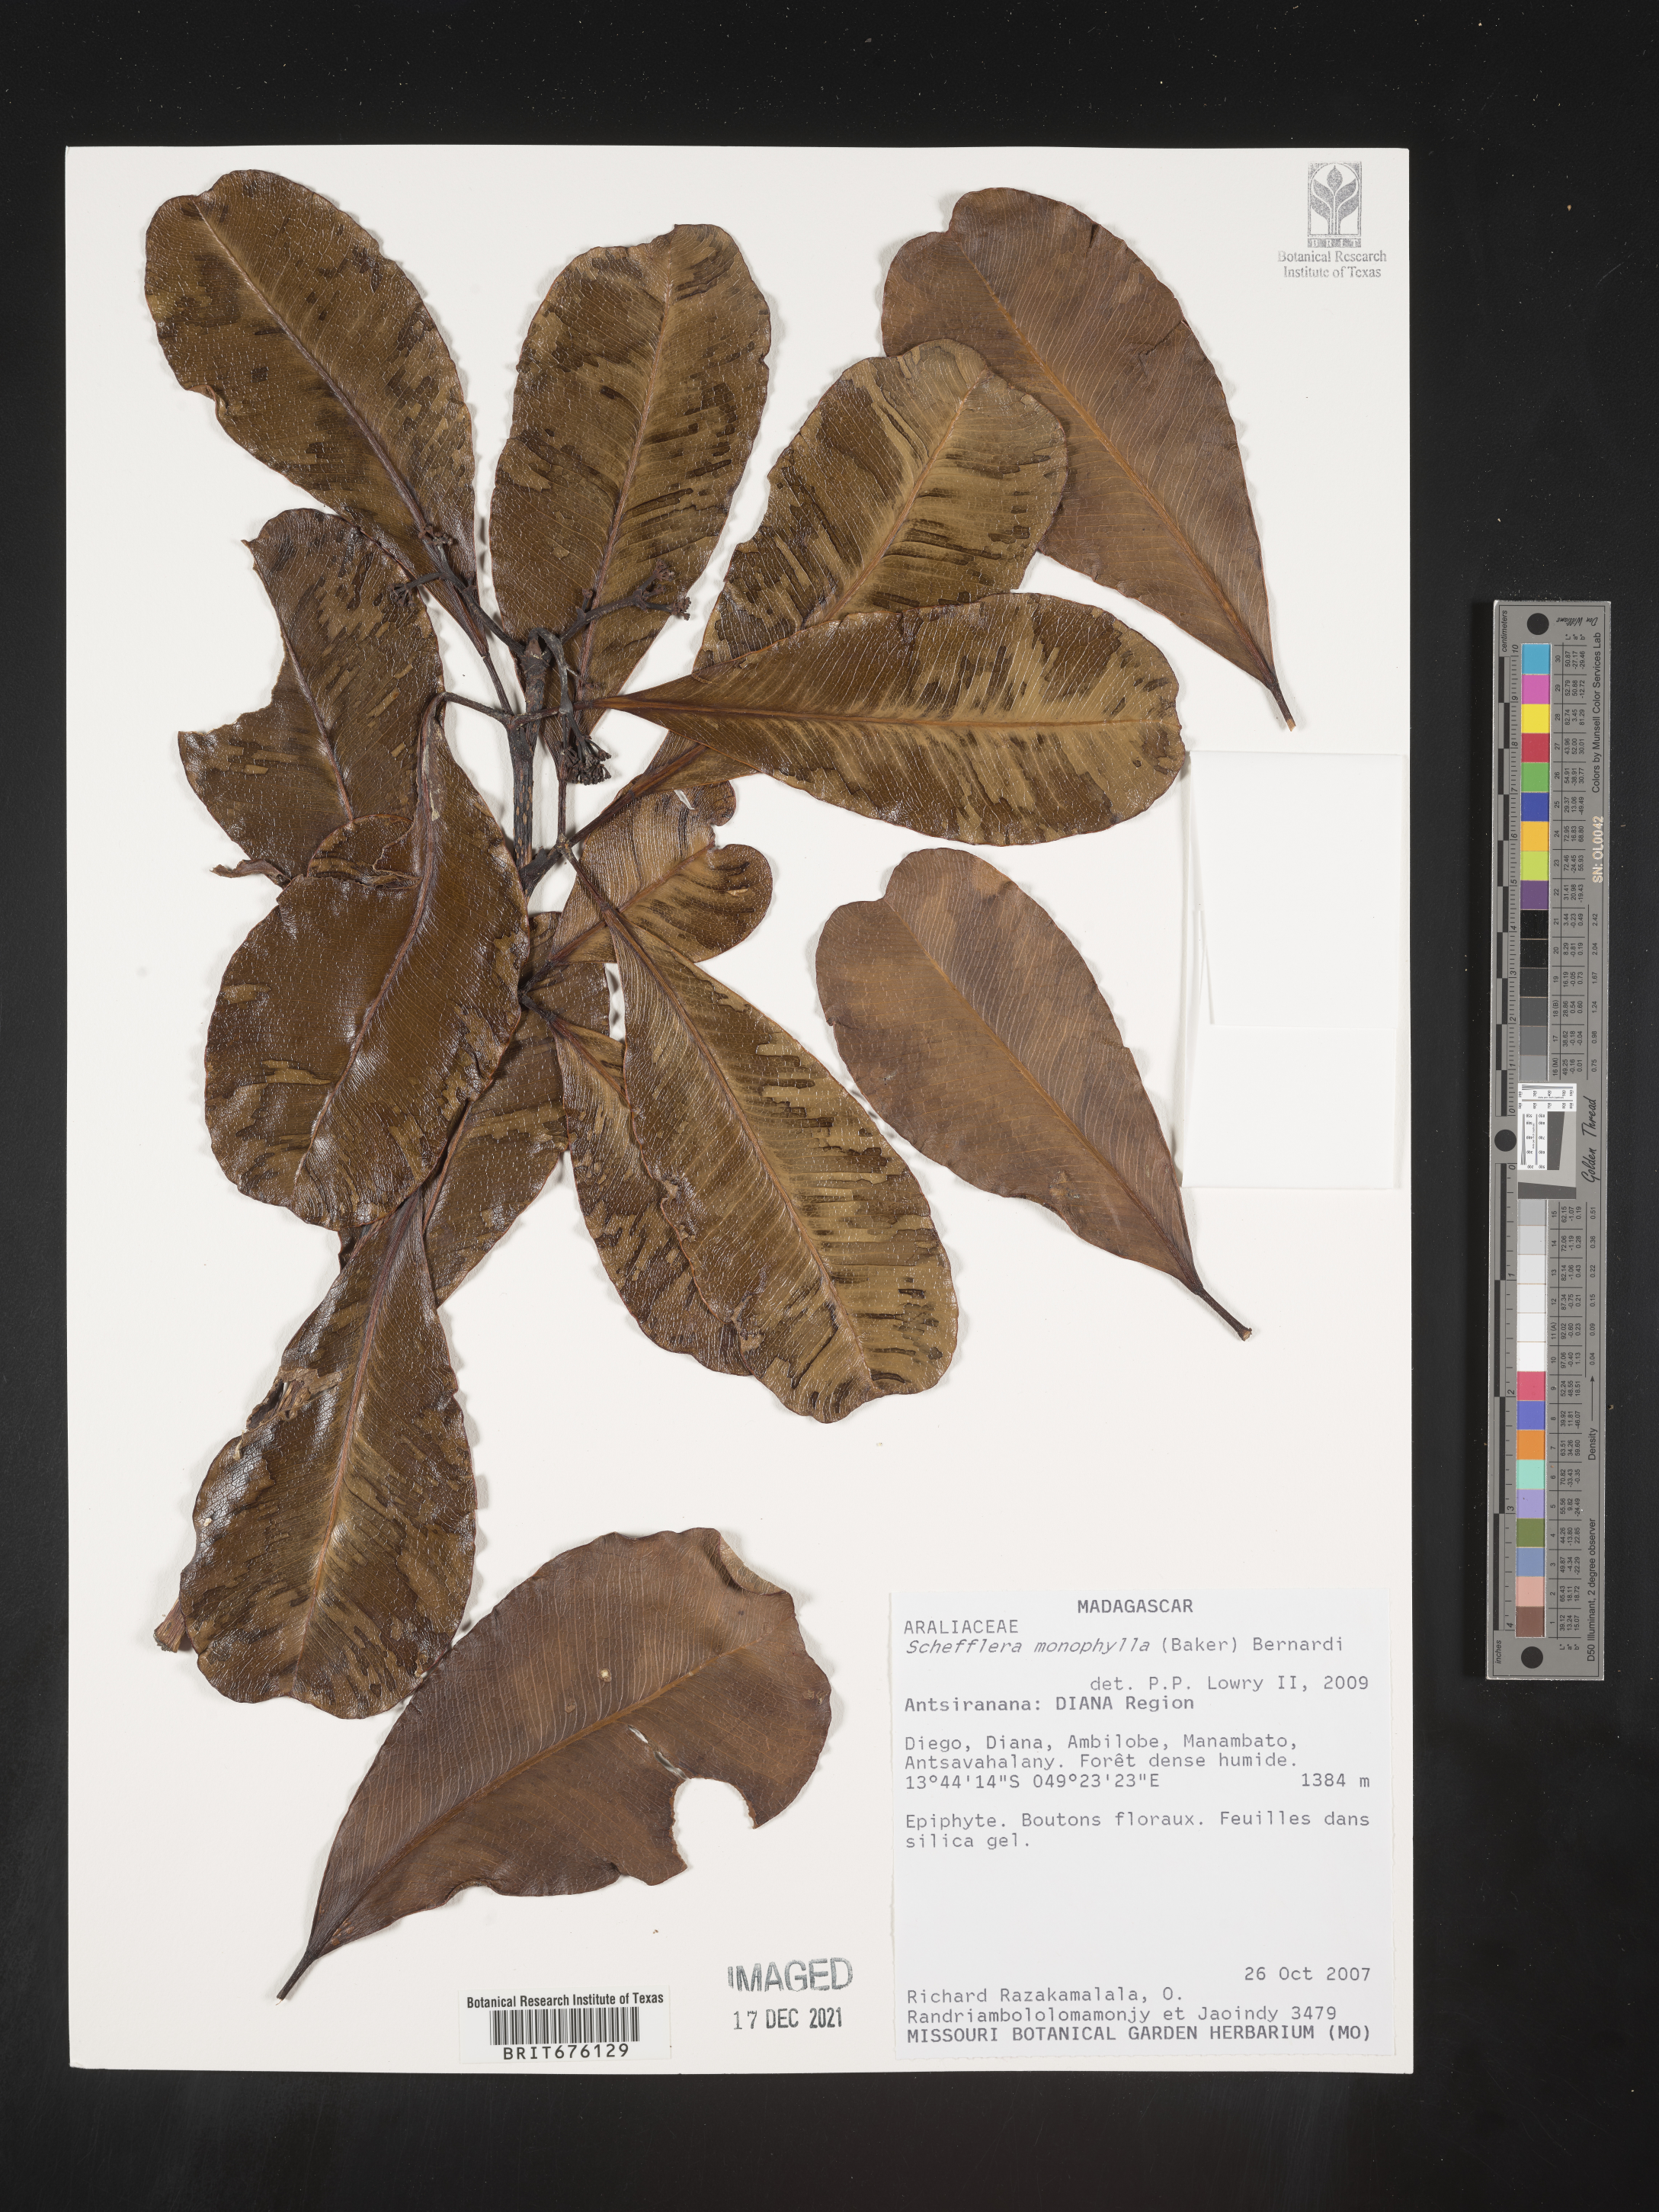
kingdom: Plantae
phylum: Tracheophyta
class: Magnoliopsida
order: Apiales
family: Araliaceae
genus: Schefflera
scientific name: Schefflera
